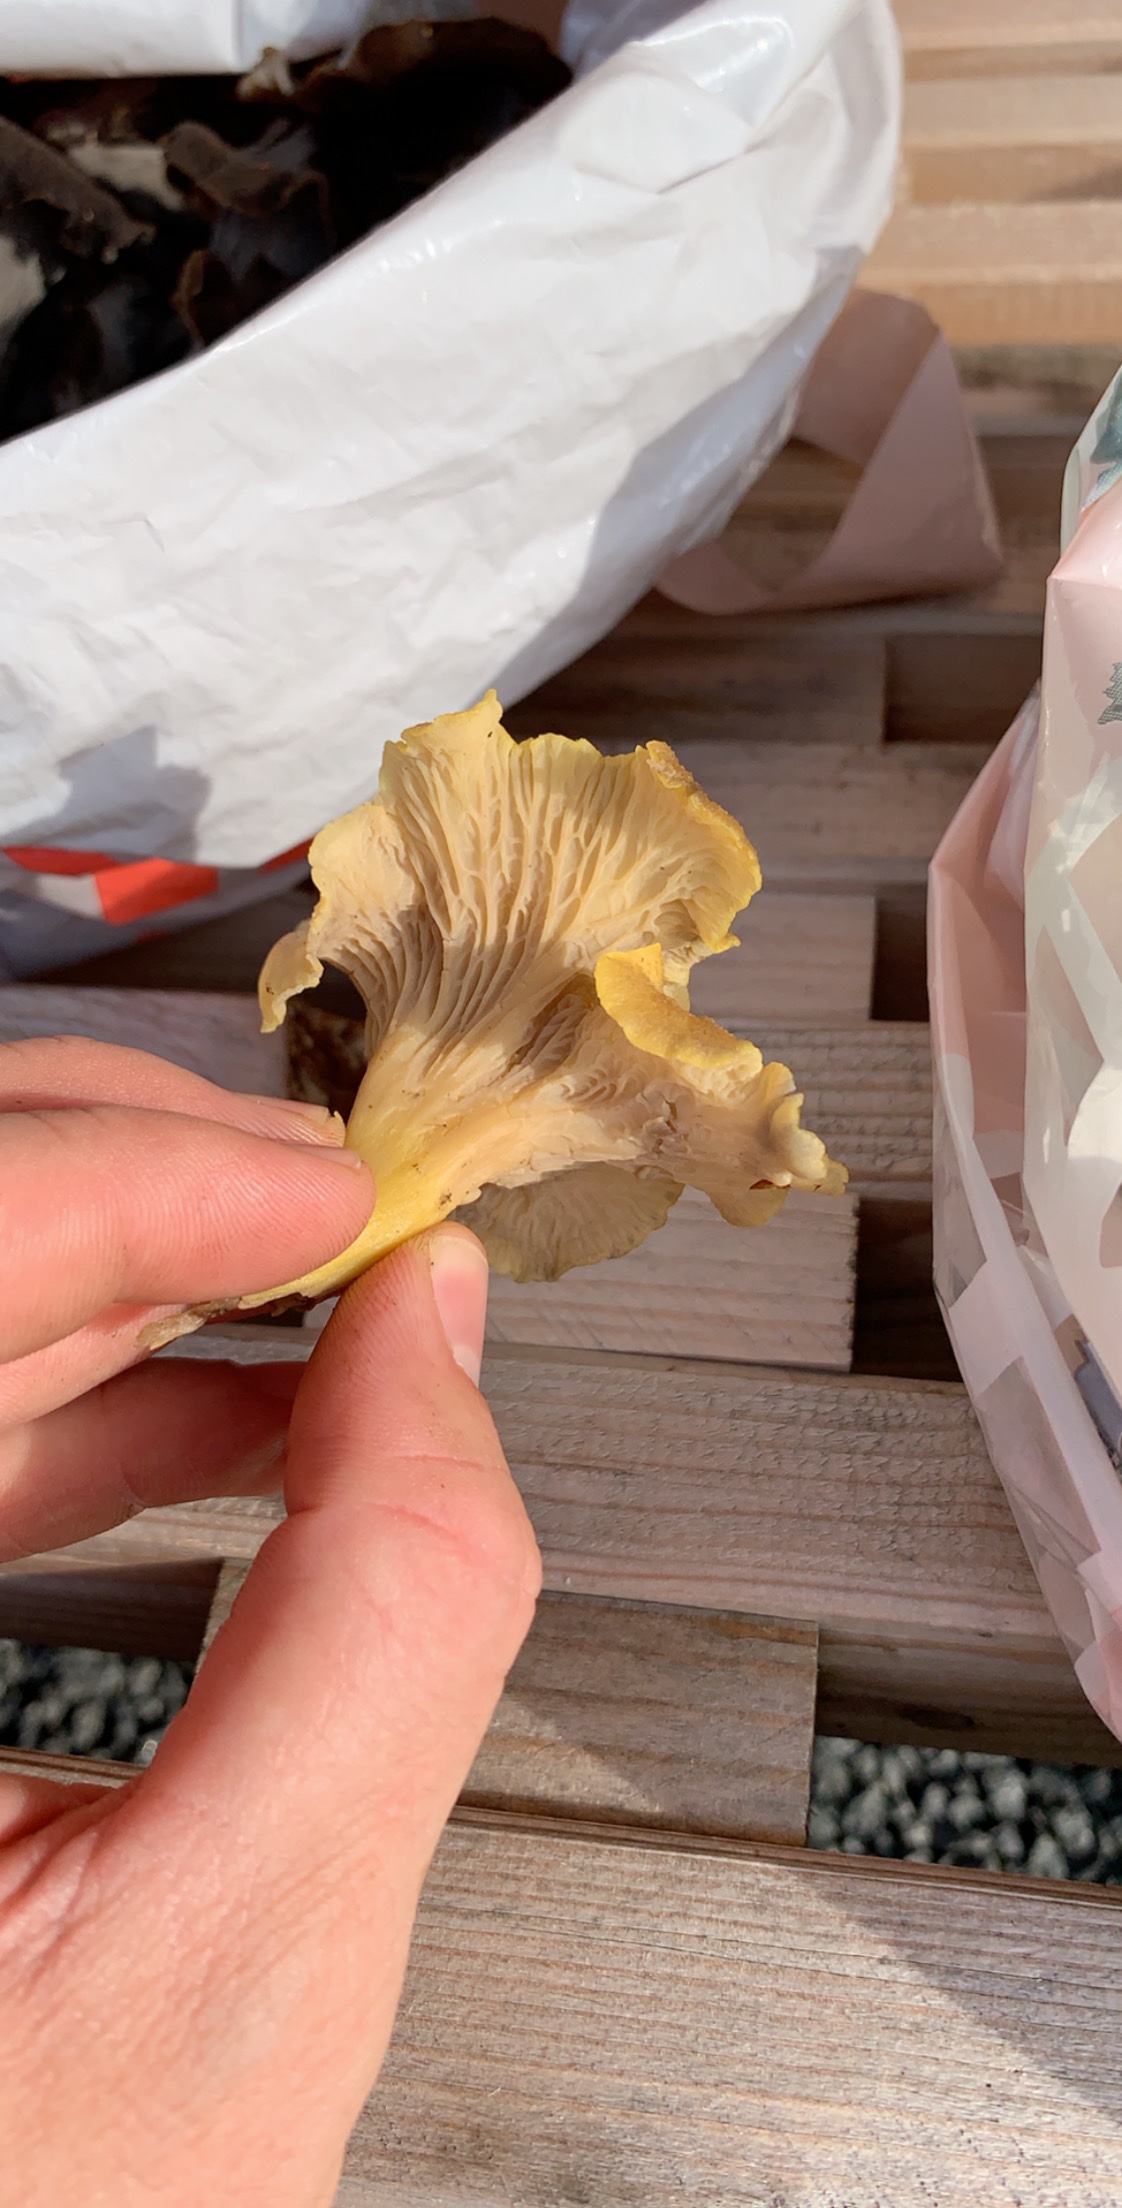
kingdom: Fungi
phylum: Basidiomycota
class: Agaricomycetes
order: Cantharellales
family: Hydnaceae
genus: Craterellus
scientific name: Craterellus
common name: kantarel
